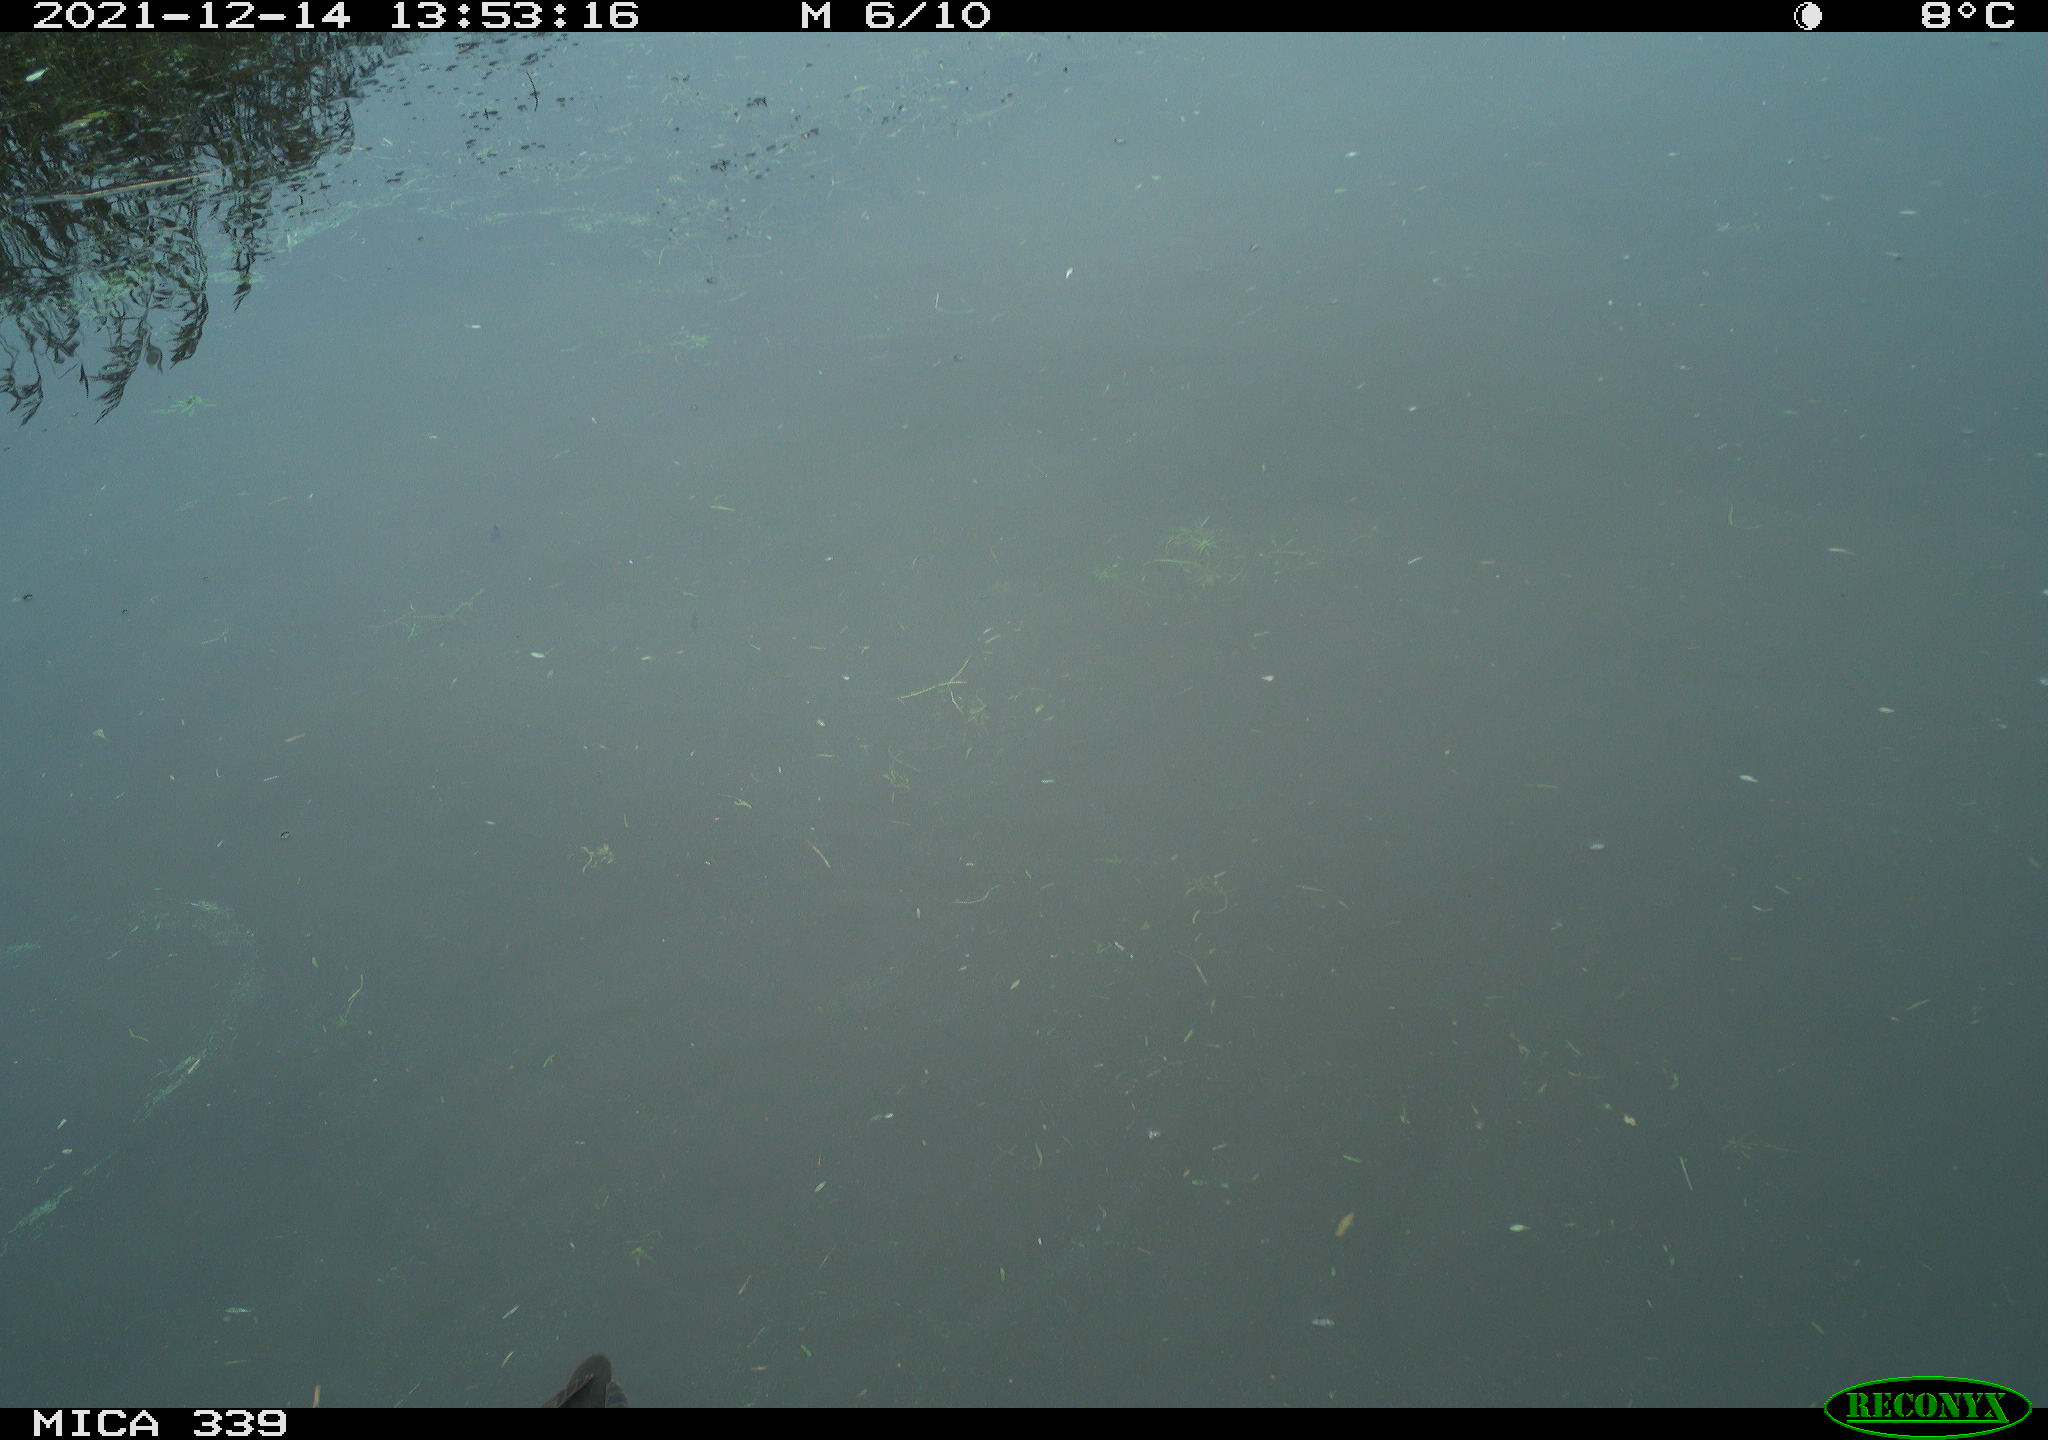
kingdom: Animalia
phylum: Chordata
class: Aves
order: Gruiformes
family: Rallidae
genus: Gallinula
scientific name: Gallinula chloropus
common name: Common moorhen
